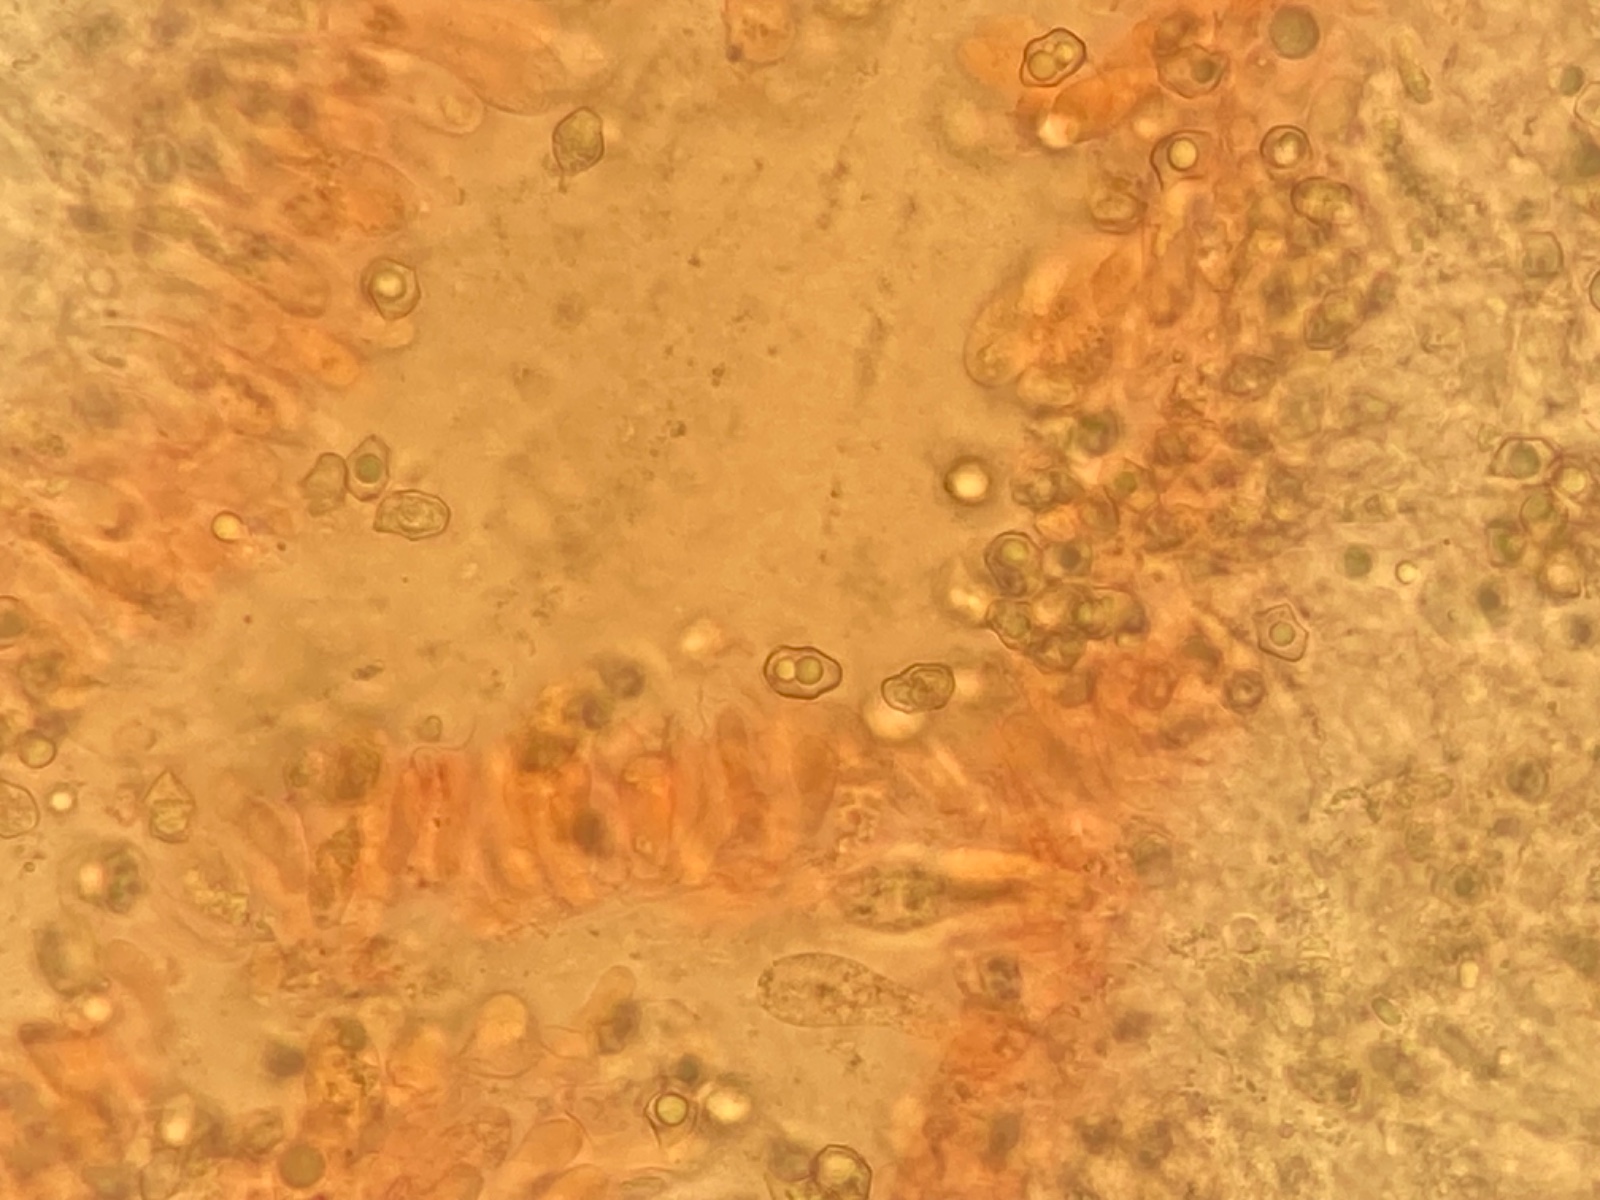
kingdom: Fungi
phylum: Basidiomycota
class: Agaricomycetes
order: Agaricales
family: Entolomataceae
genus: Entoloma
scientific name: Entoloma
